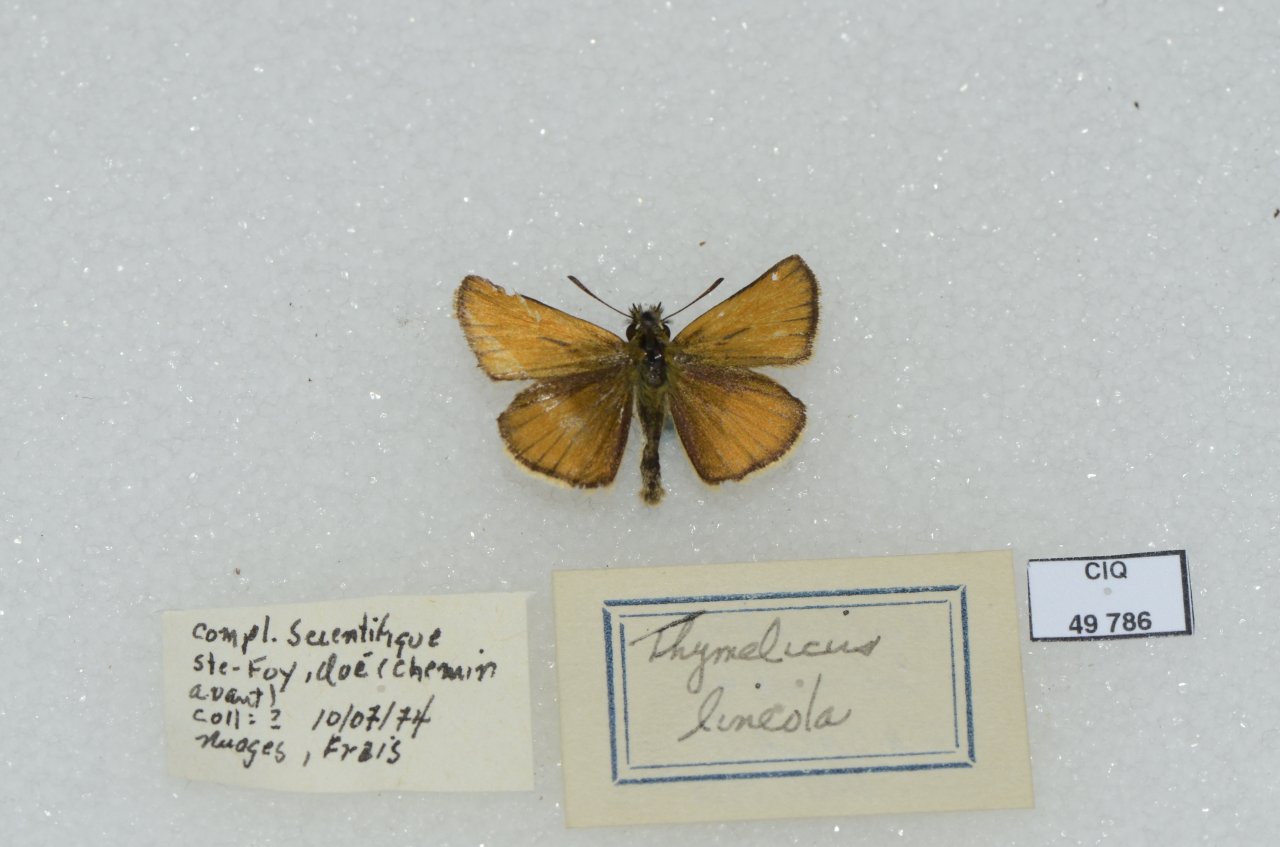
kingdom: Animalia
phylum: Arthropoda
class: Insecta
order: Lepidoptera
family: Hesperiidae
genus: Thymelicus
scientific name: Thymelicus lineola
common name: European Skipper
